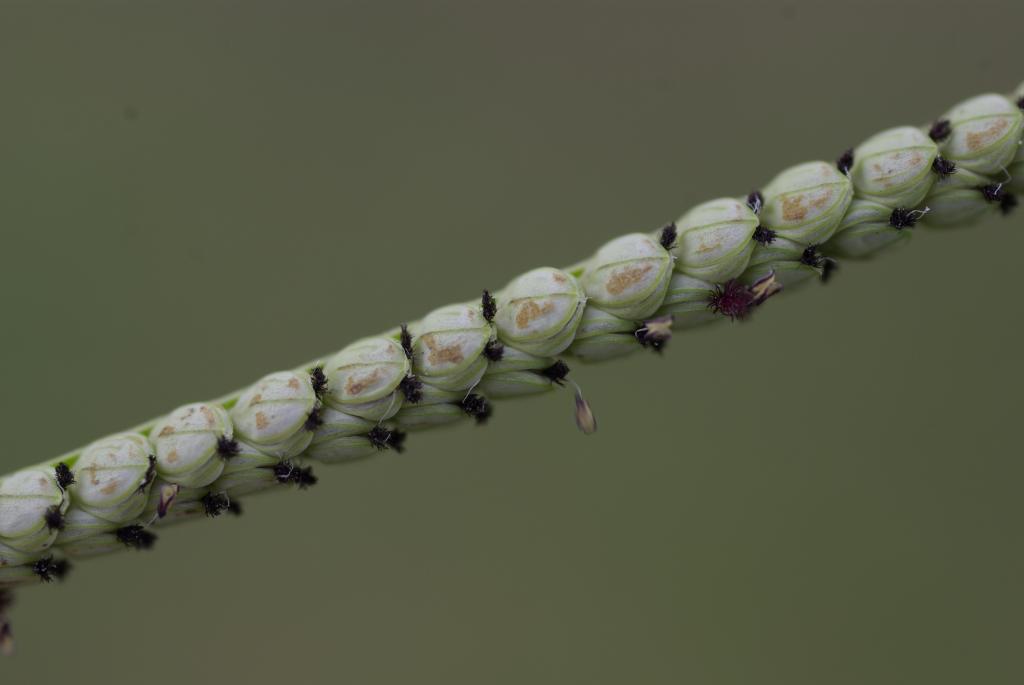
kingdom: Plantae
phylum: Tracheophyta
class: Liliopsida
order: Poales
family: Poaceae
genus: Paspalum
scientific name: Paspalum orbiculare
